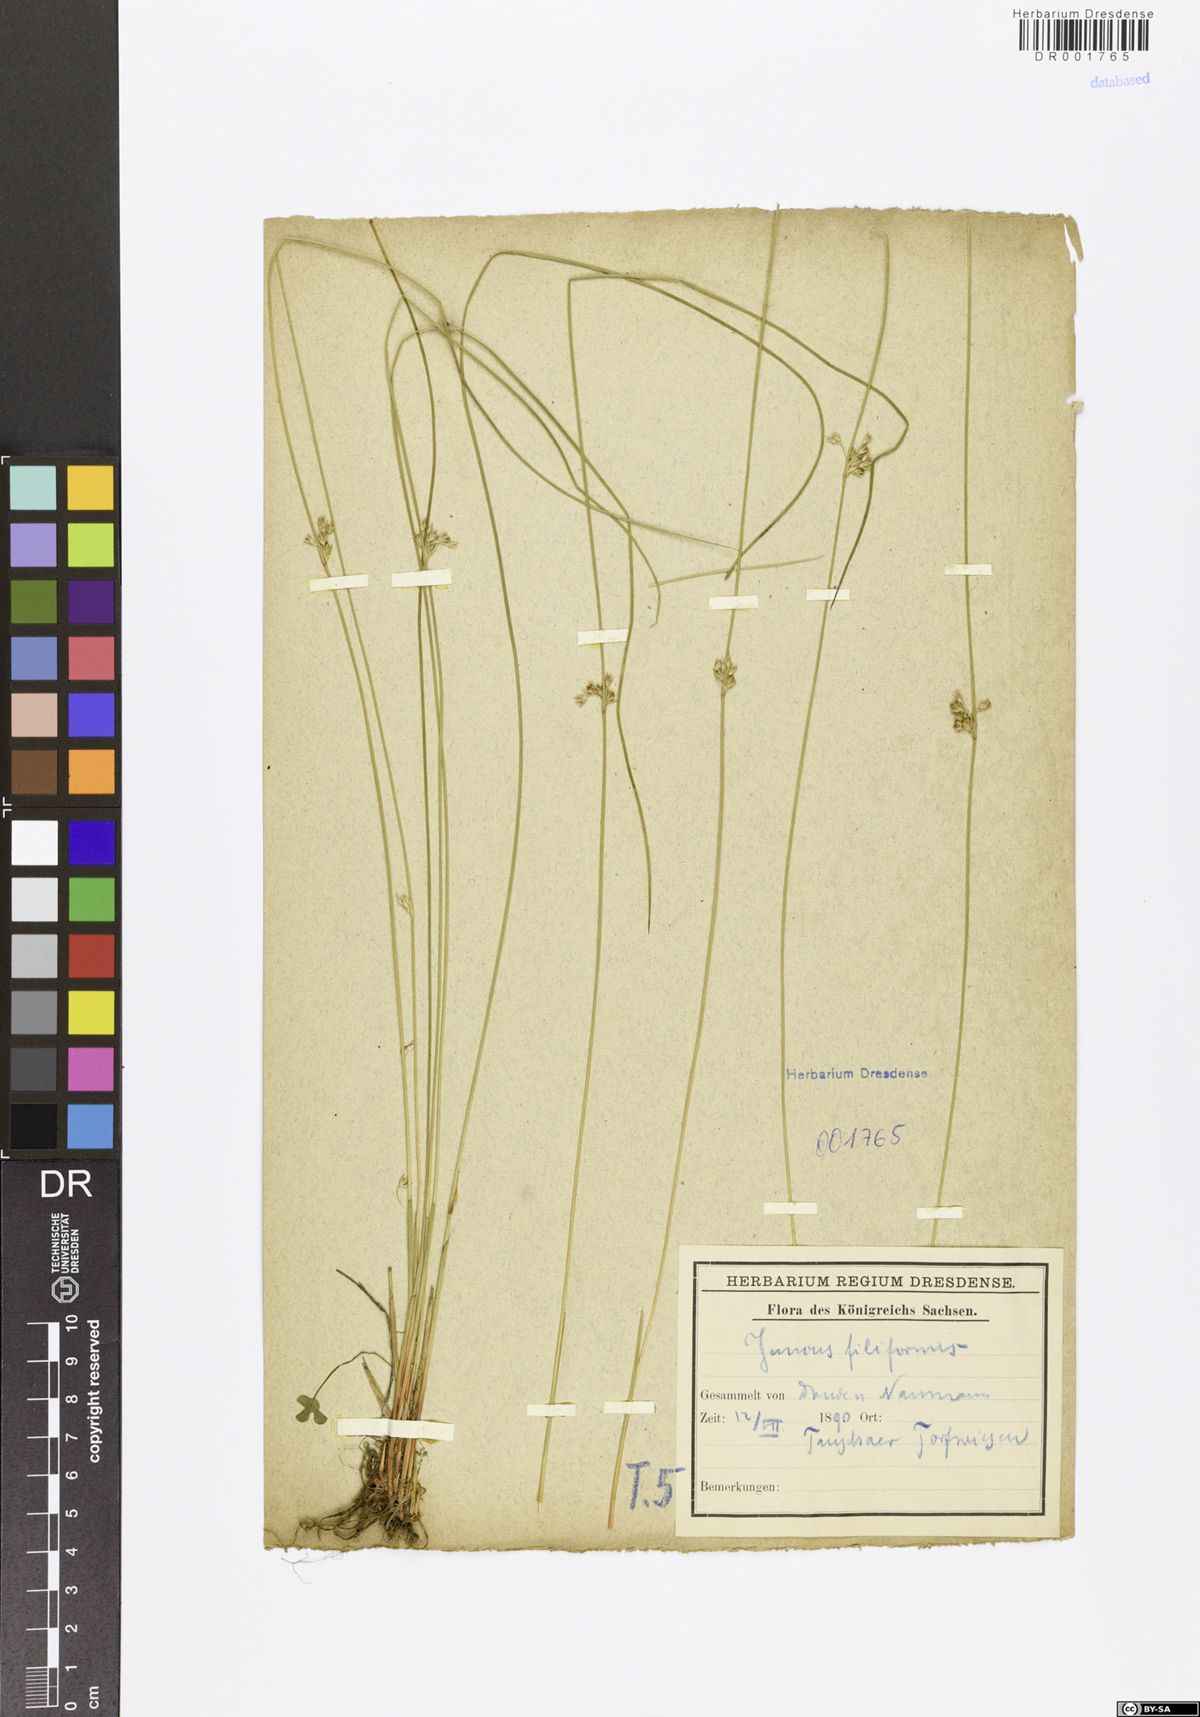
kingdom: Plantae
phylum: Tracheophyta
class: Liliopsida
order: Poales
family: Juncaceae
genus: Juncus
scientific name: Juncus inflexus
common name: Hard rush
